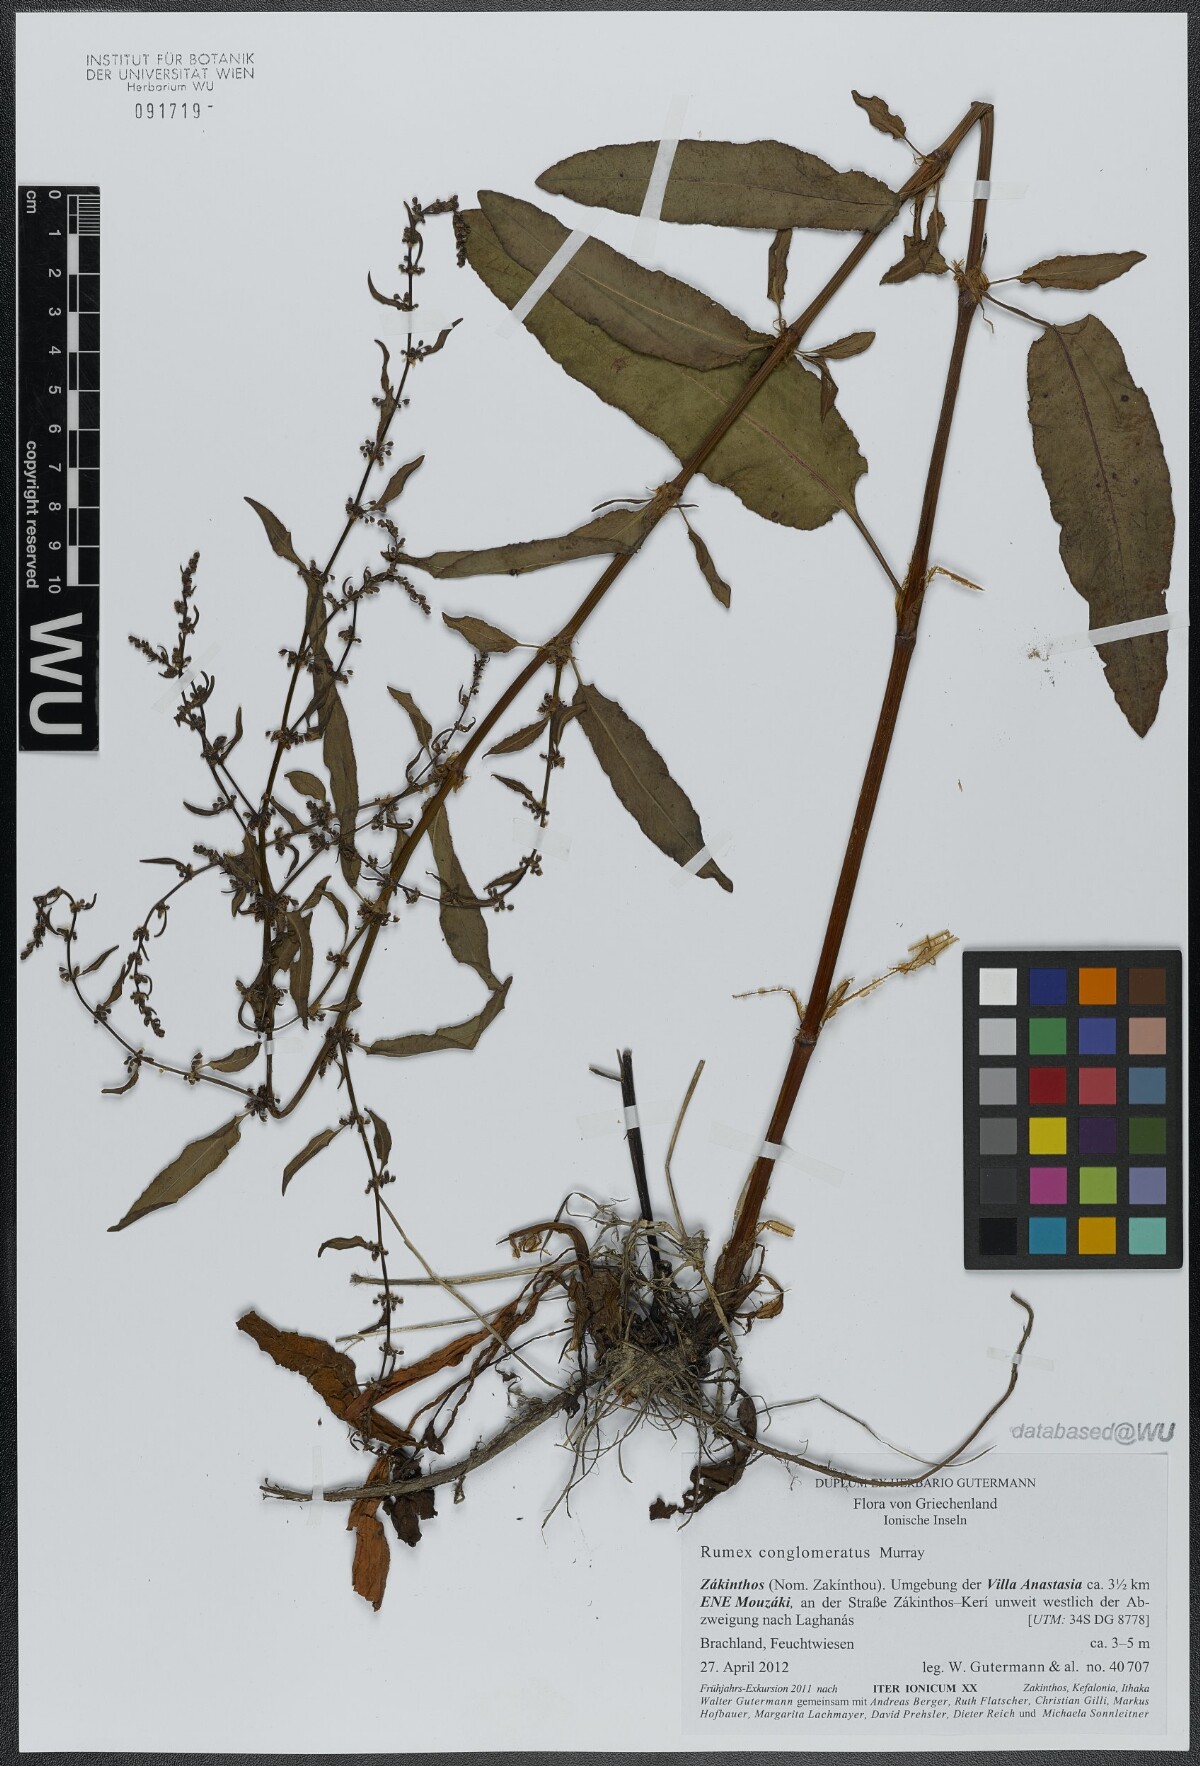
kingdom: Plantae
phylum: Tracheophyta
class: Magnoliopsida
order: Caryophyllales
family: Polygonaceae
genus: Rumex
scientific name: Rumex conglomeratus
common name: Clustered dock
